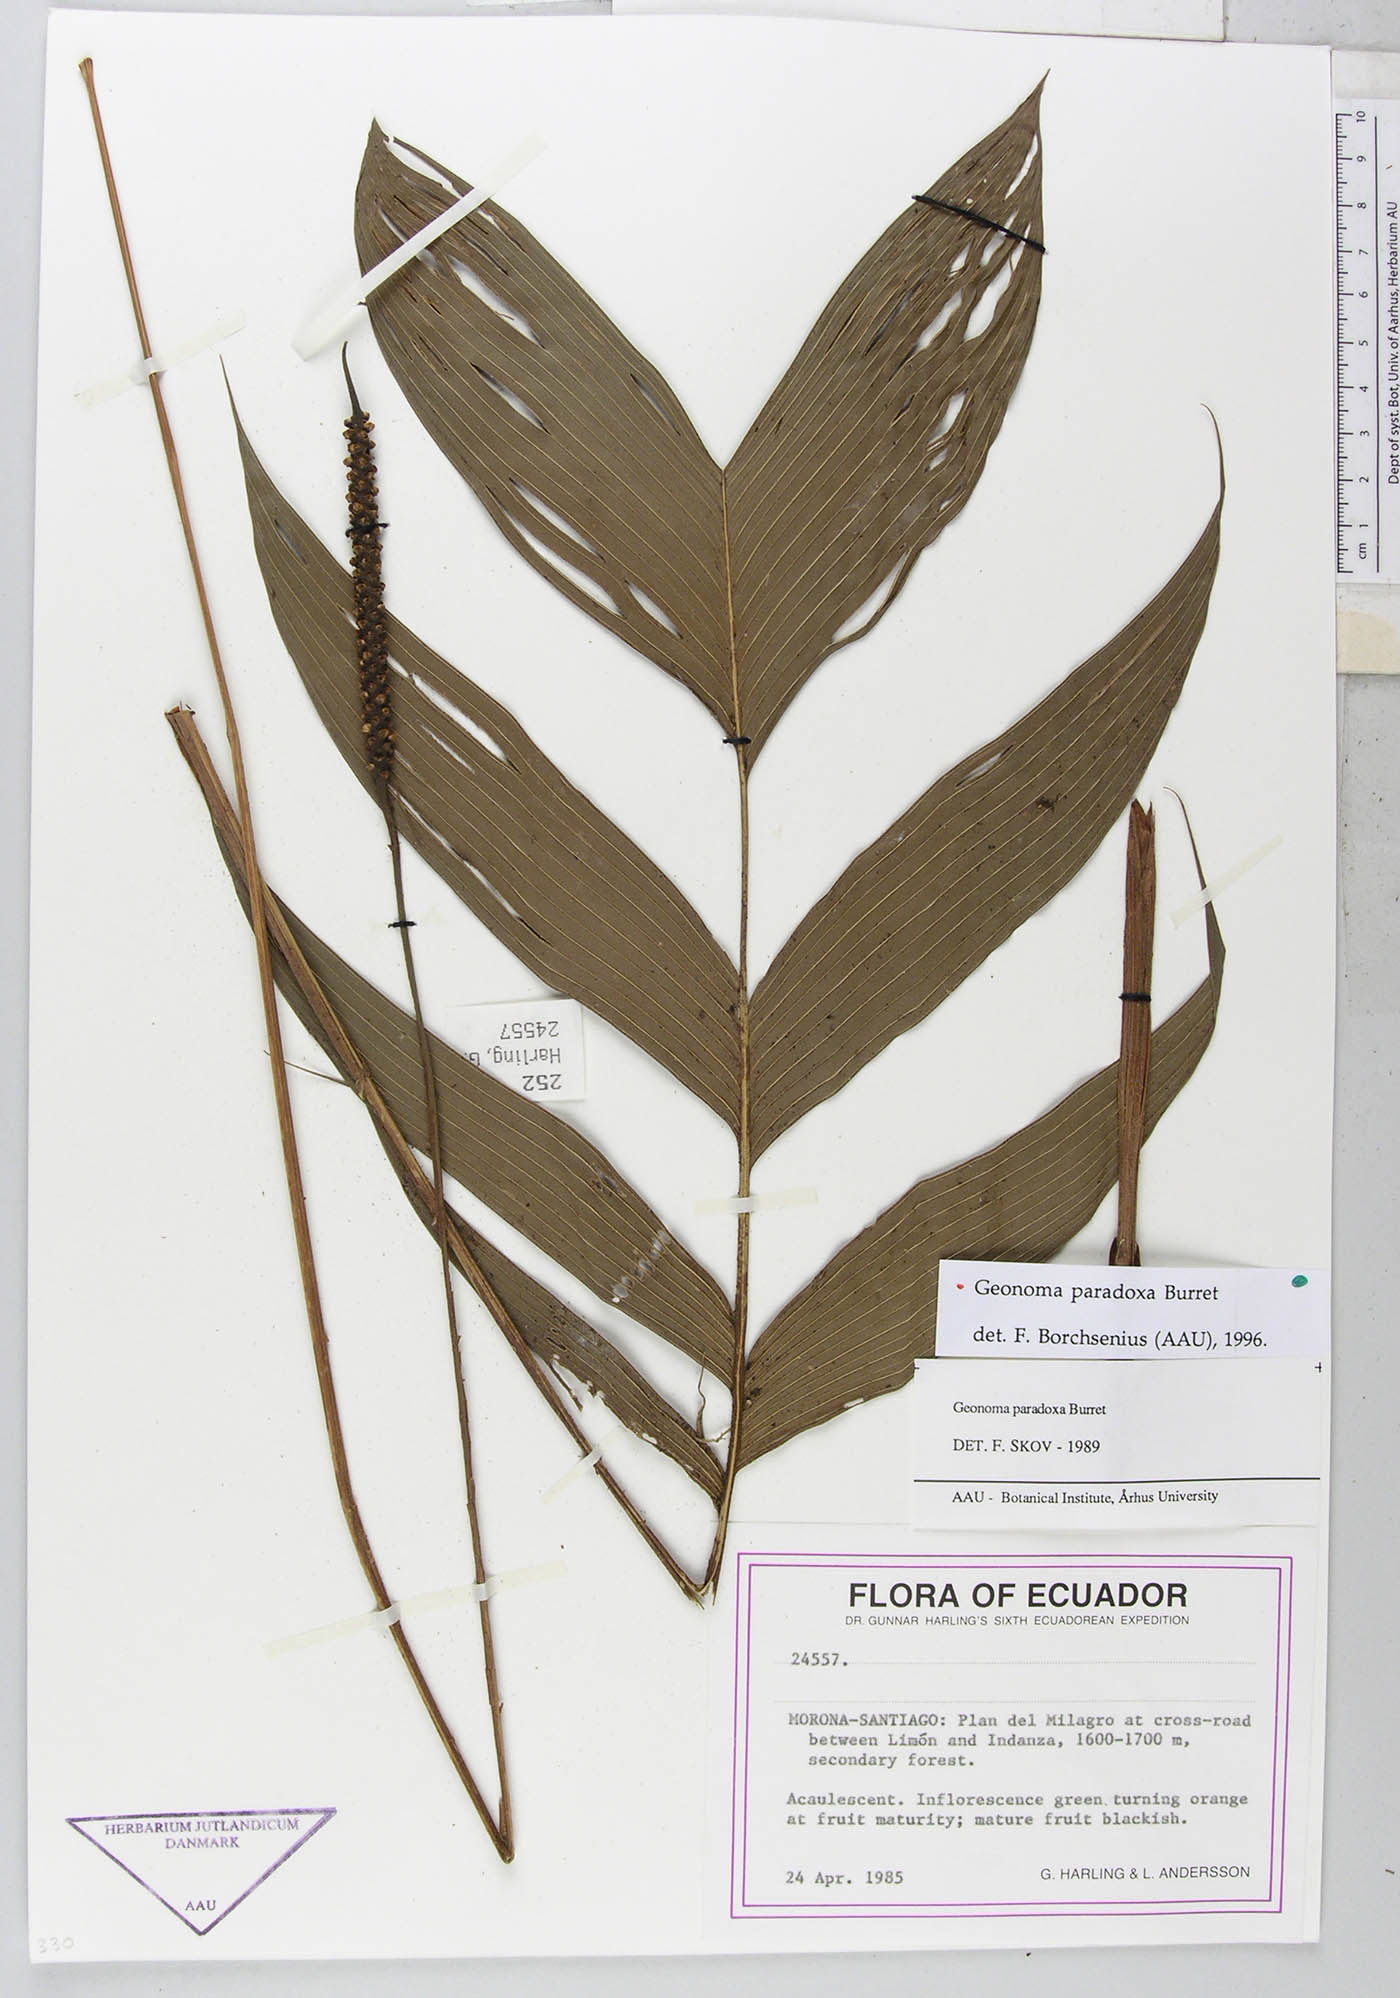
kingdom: Plantae
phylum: Tracheophyta
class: Liliopsida
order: Arecales
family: Arecaceae
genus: Geonoma
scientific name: Geonoma macrostachys
